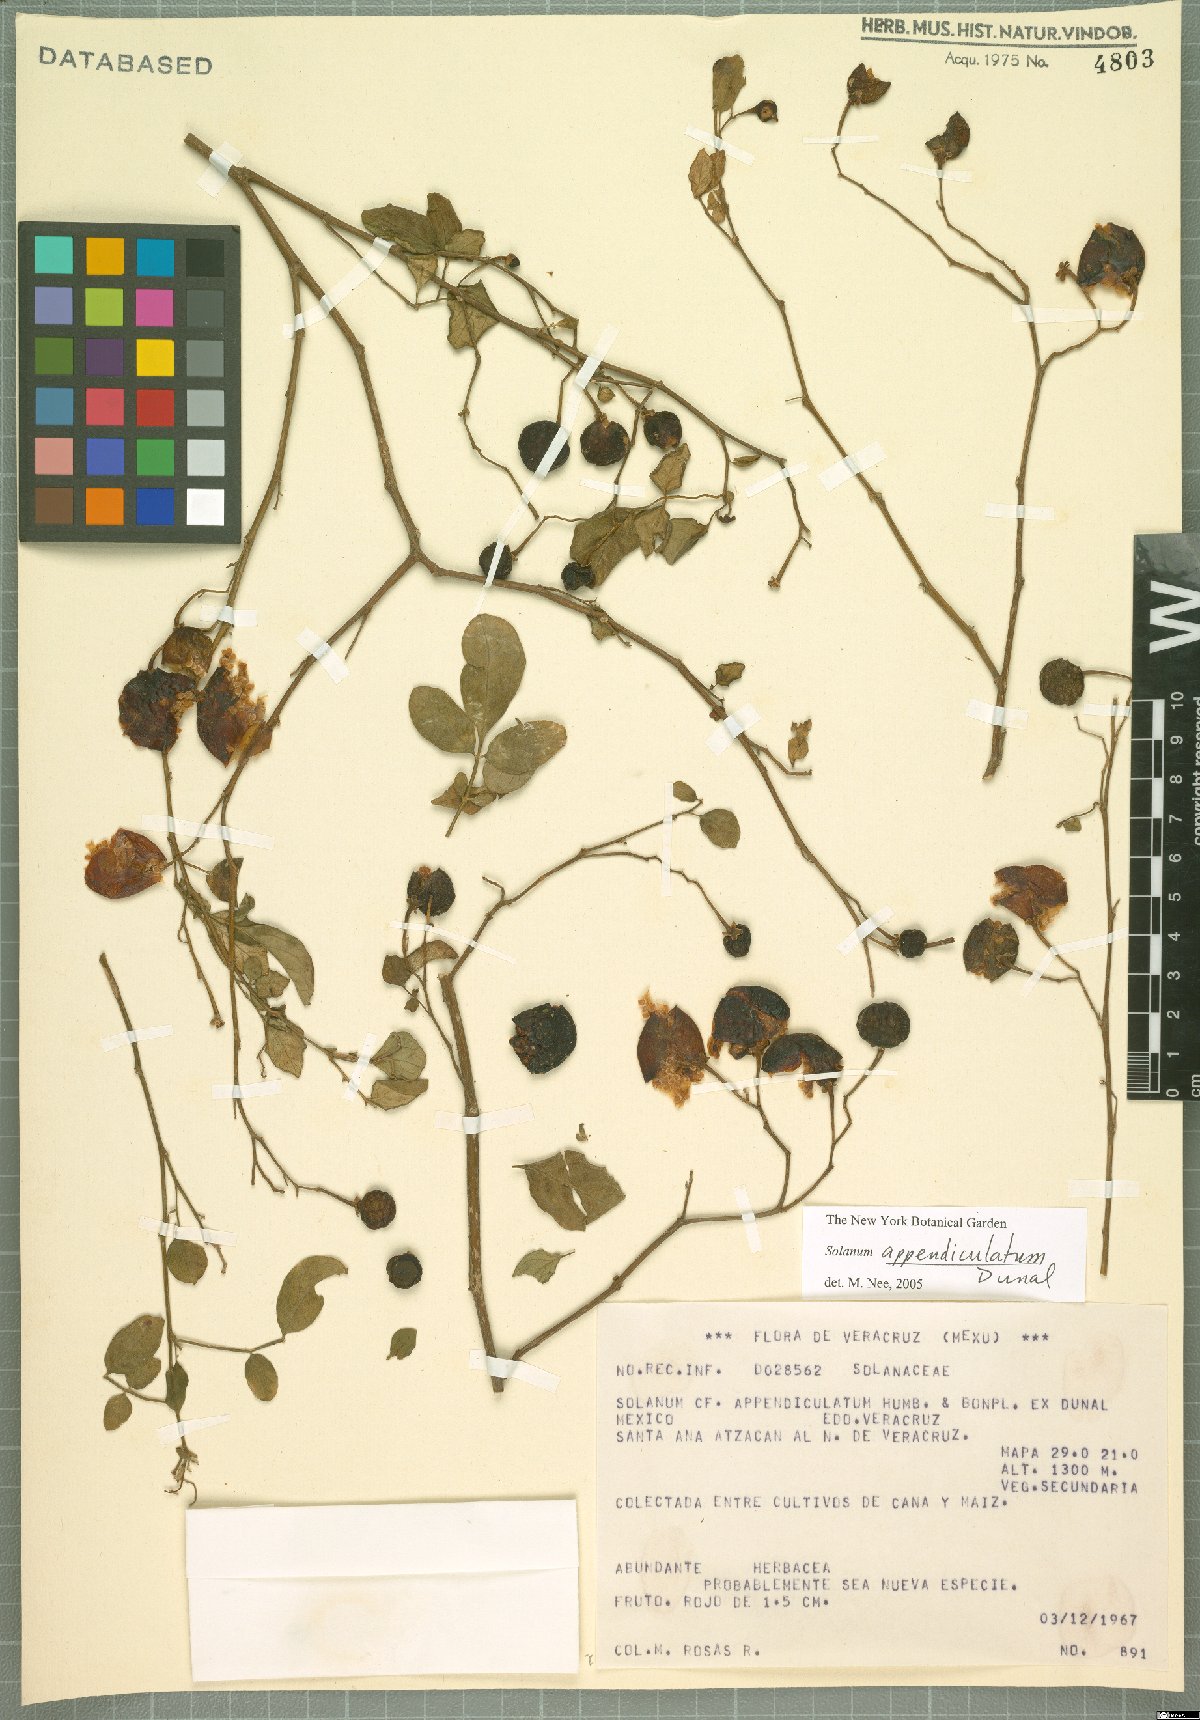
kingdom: Plantae
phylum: Tracheophyta
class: Magnoliopsida
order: Solanales
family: Solanaceae
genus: Solanum
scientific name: Solanum appendiculatum
